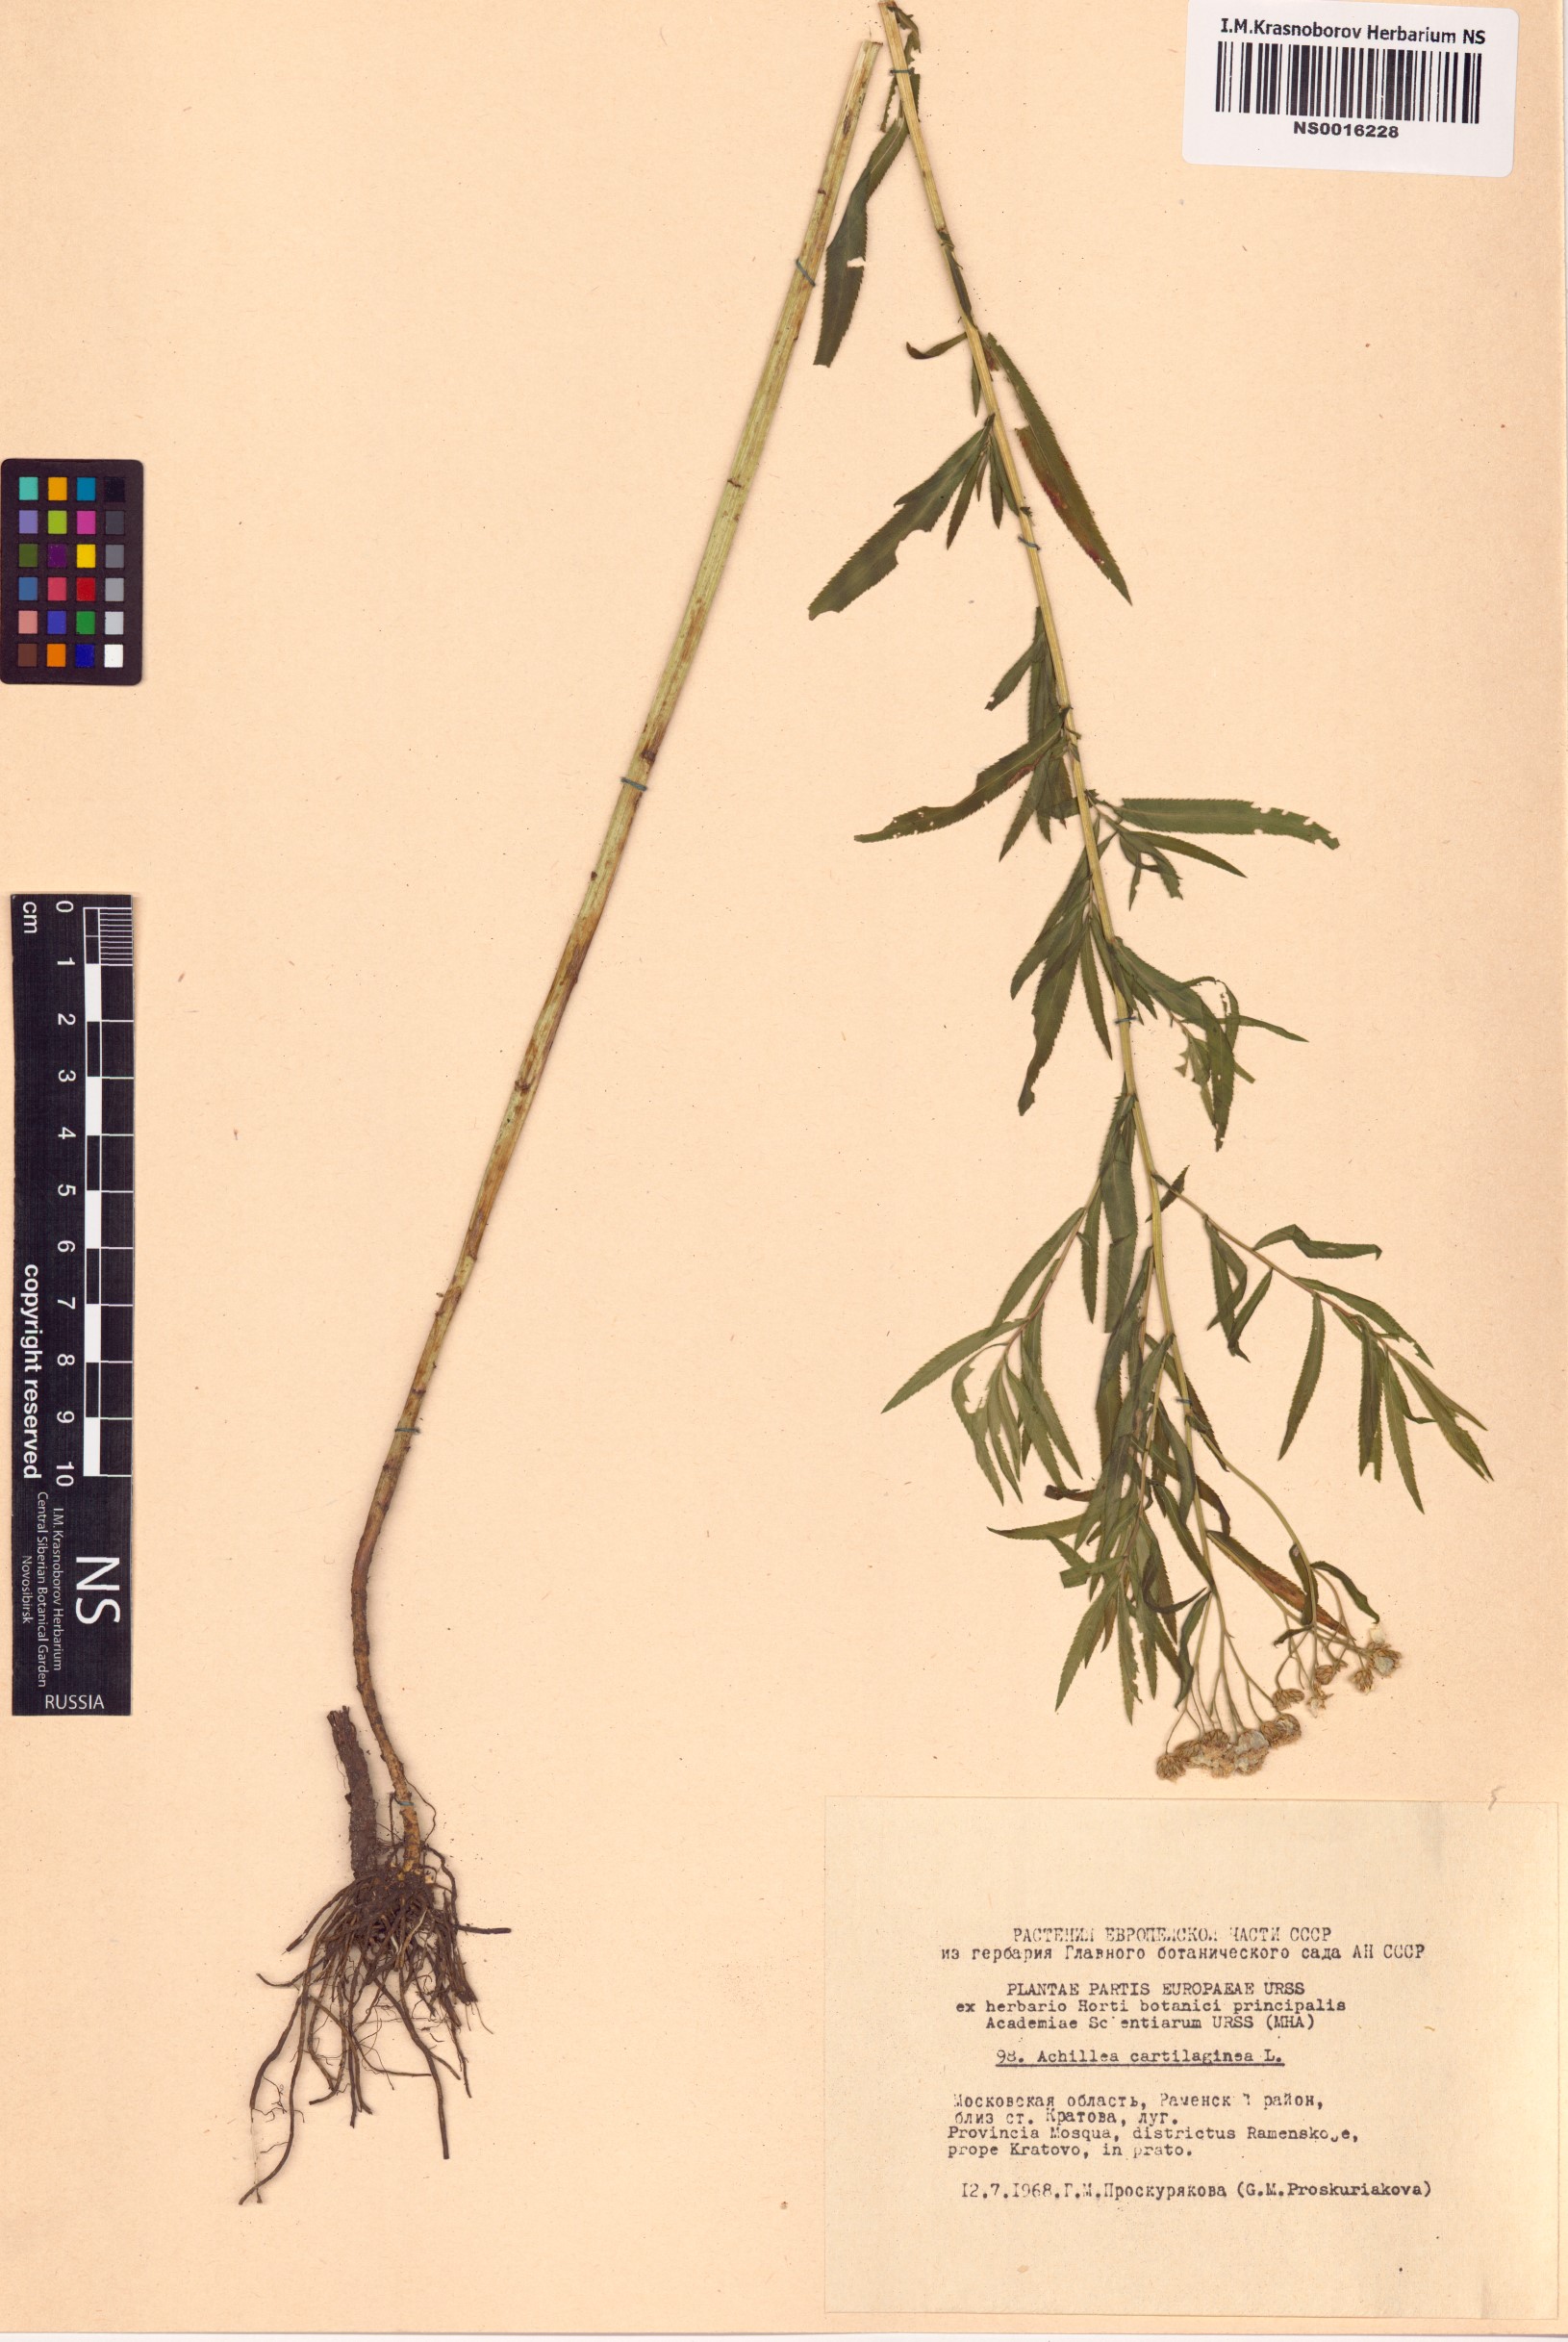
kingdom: Plantae
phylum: Tracheophyta
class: Magnoliopsida
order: Asterales
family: Asteraceae
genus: Achillea
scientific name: Achillea salicifolia
